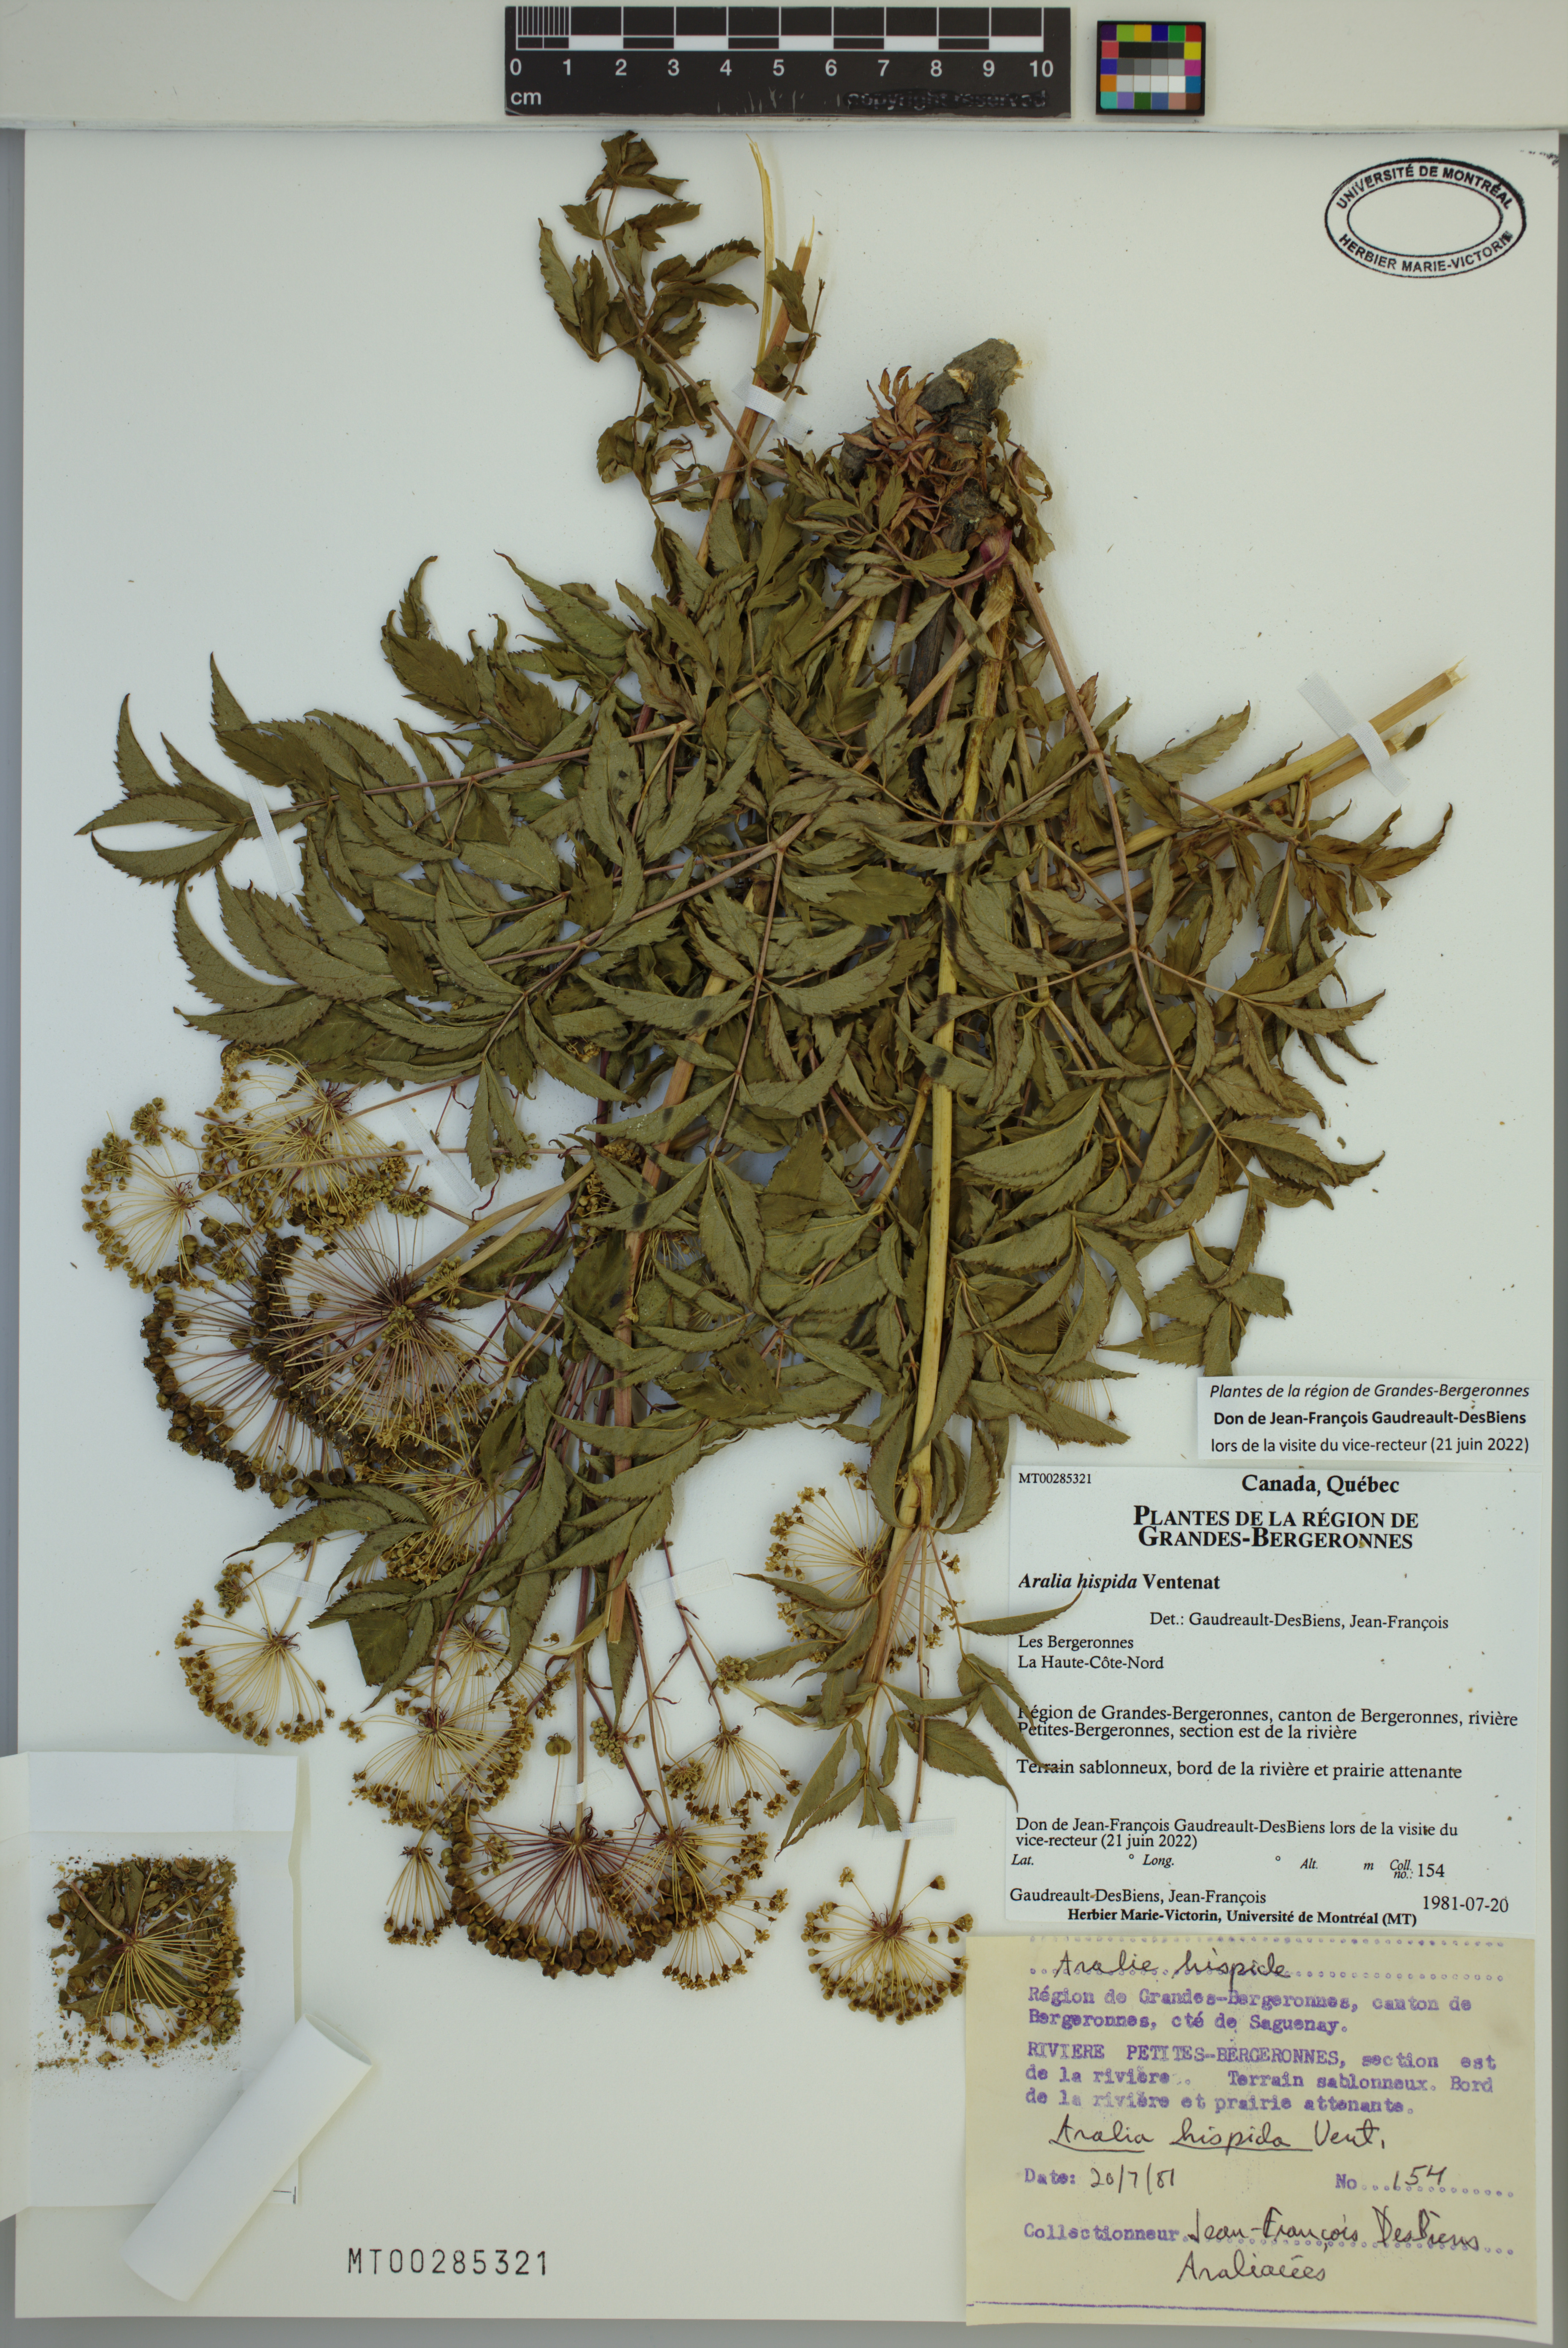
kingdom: Plantae
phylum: Tracheophyta
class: Magnoliopsida
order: Apiales
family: Araliaceae
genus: Aralia
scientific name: Aralia hispida
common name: Bristly sarsaparilla
